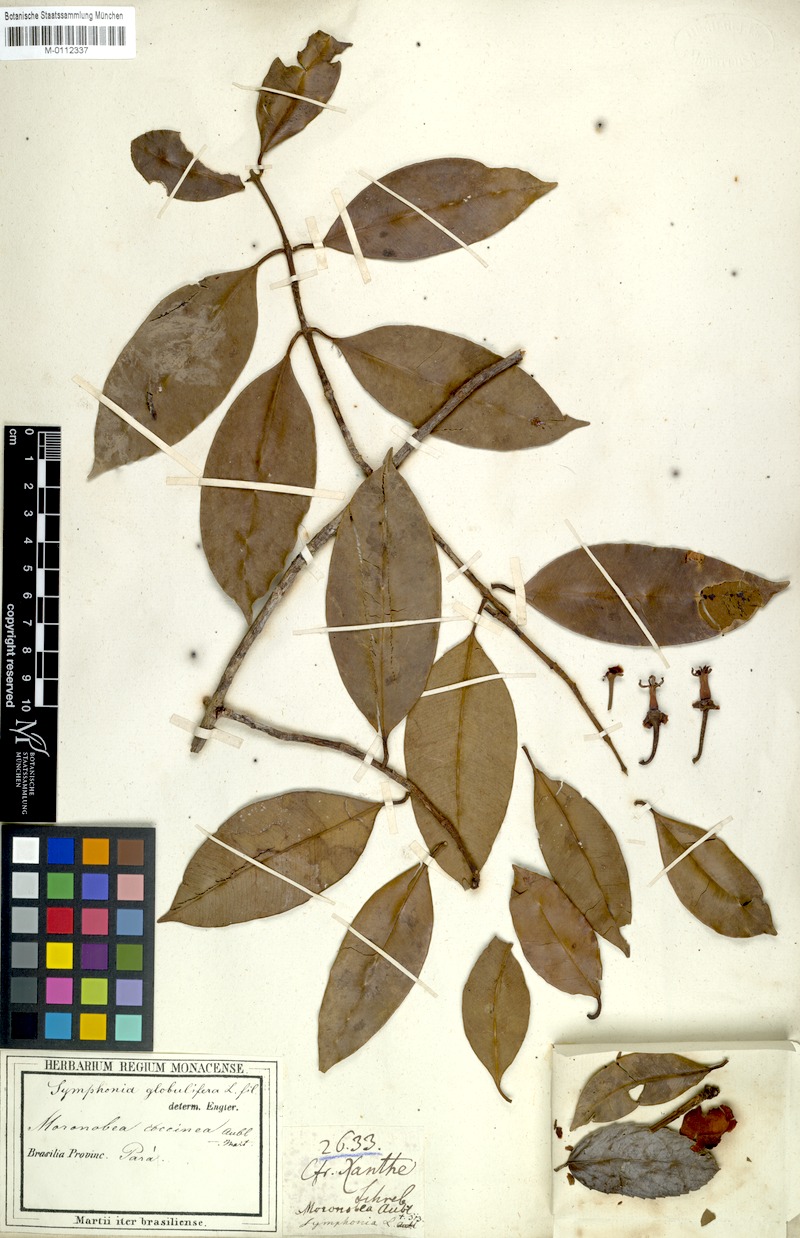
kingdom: Plantae
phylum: Tracheophyta
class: Magnoliopsida
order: Malpighiales
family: Clusiaceae
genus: Symphonia
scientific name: Symphonia globulifera
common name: Boarwood
